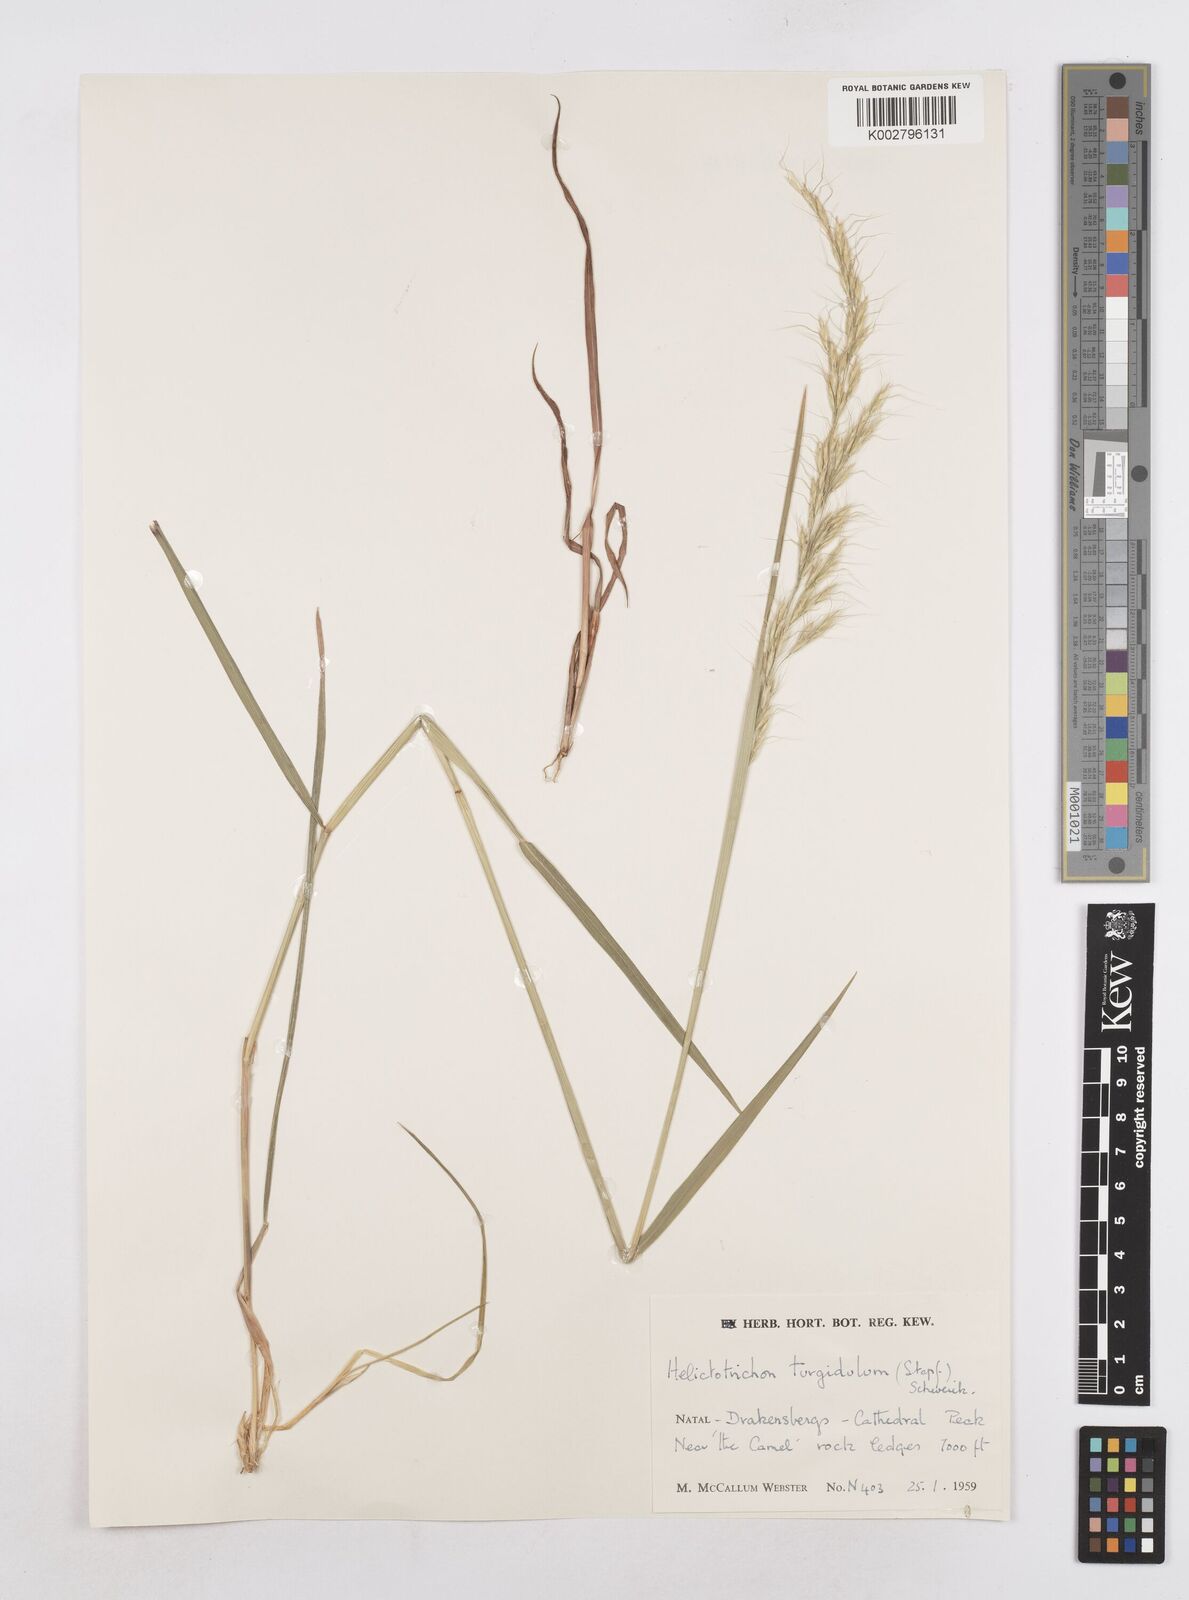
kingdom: Plantae
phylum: Tracheophyta
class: Liliopsida
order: Poales
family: Poaceae
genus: Trisetopsis
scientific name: Trisetopsis imberbis
